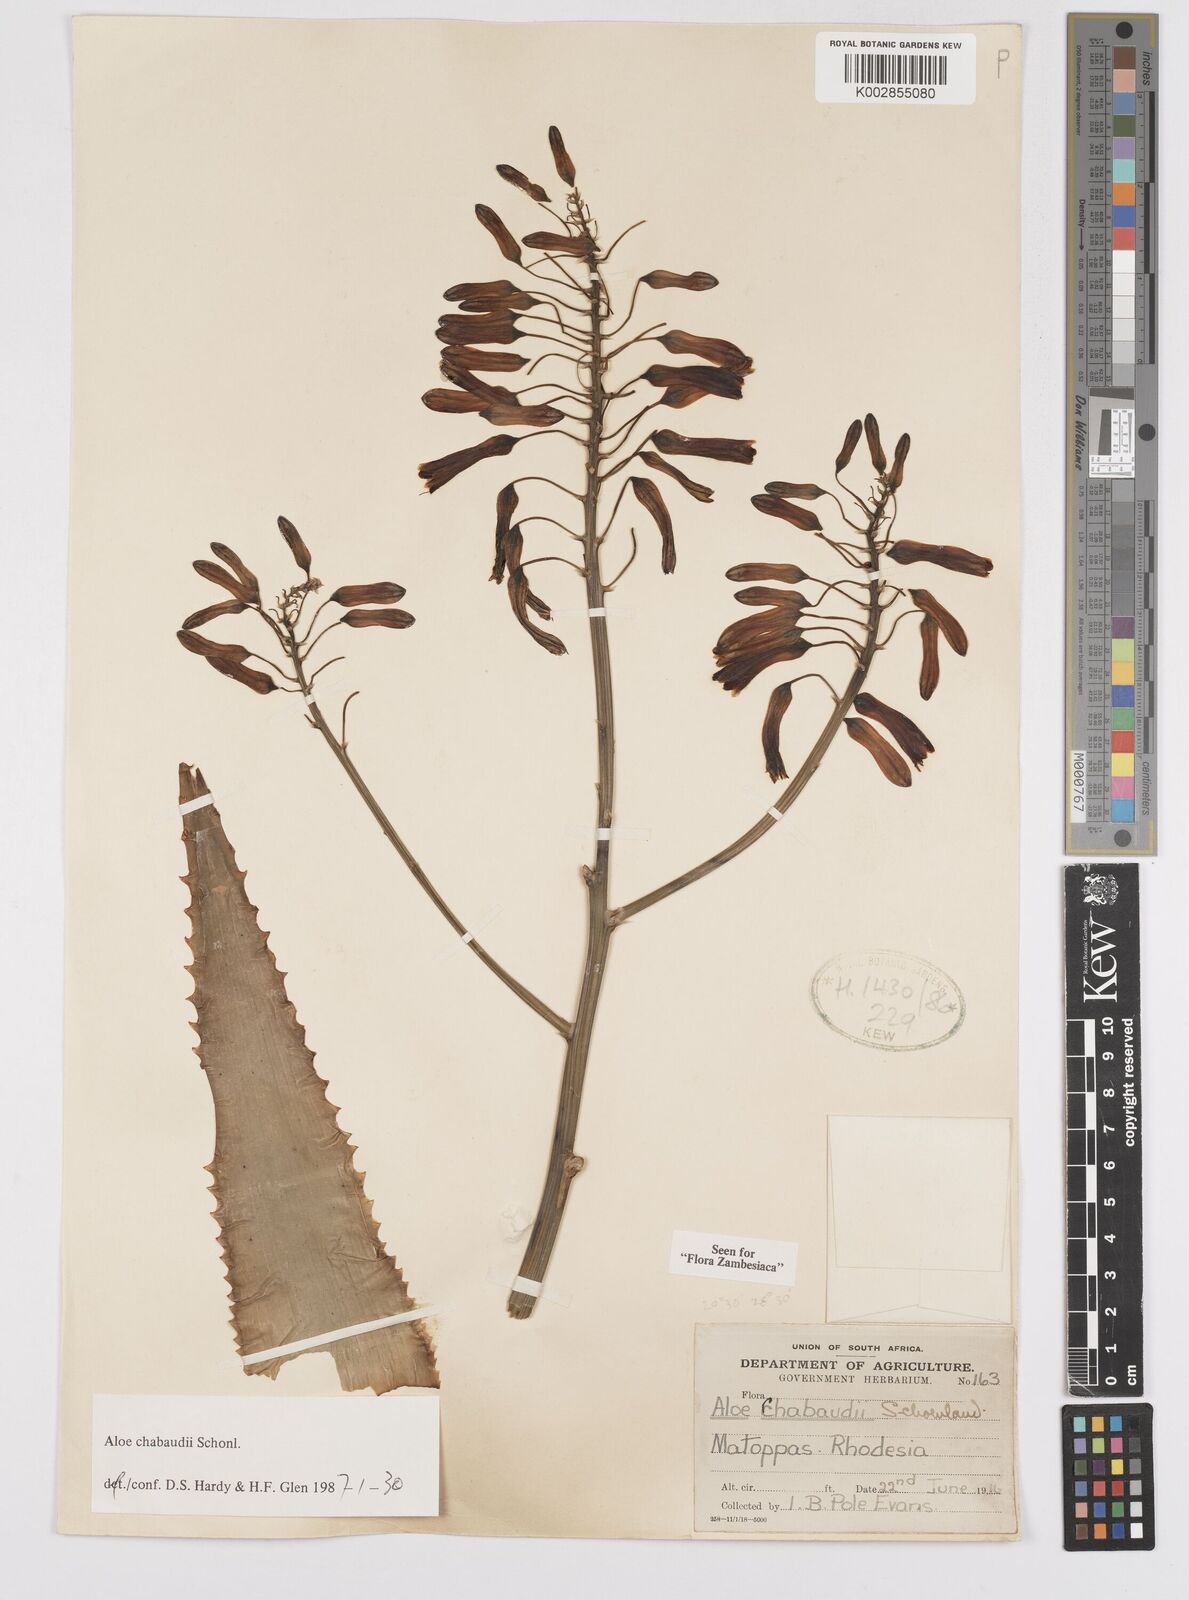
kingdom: Plantae
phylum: Tracheophyta
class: Liliopsida
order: Asparagales
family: Asphodelaceae
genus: Aloe
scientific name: Aloe chabaudii
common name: Chabaud's aloe
